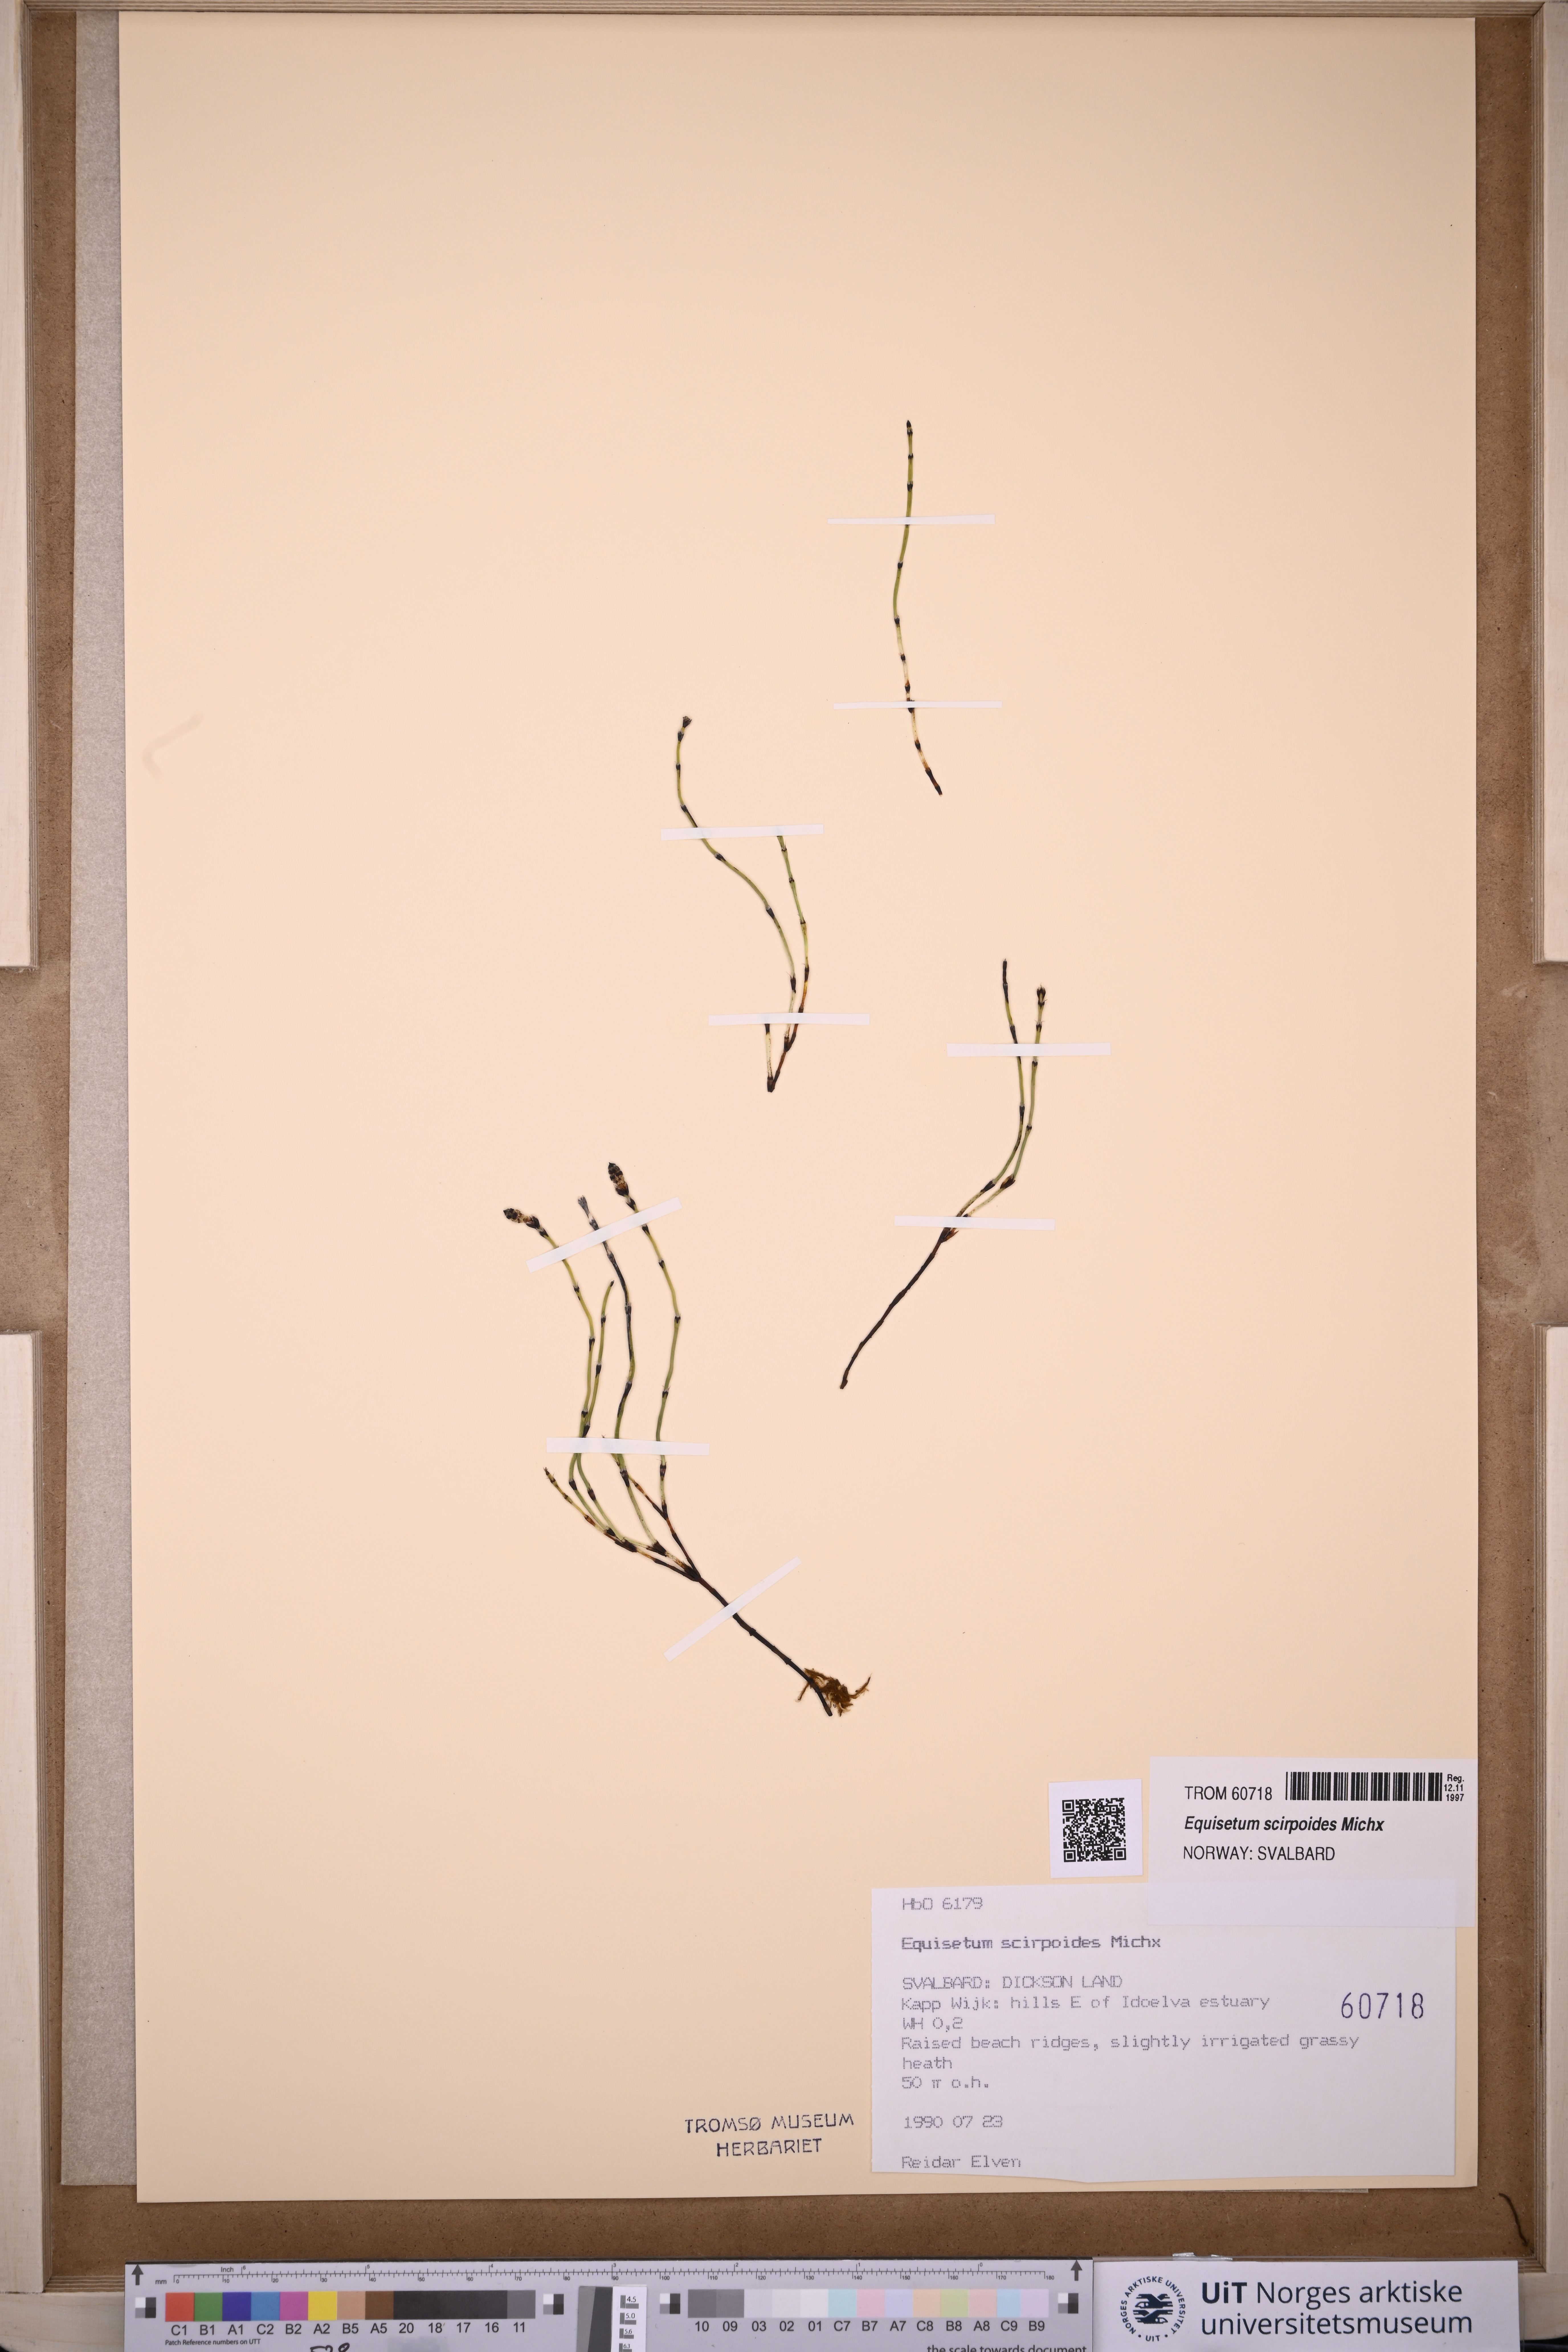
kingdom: Plantae
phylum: Tracheophyta
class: Polypodiopsida
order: Equisetales
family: Equisetaceae
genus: Equisetum
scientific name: Equisetum scirpoides
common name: Delicate horsetail
